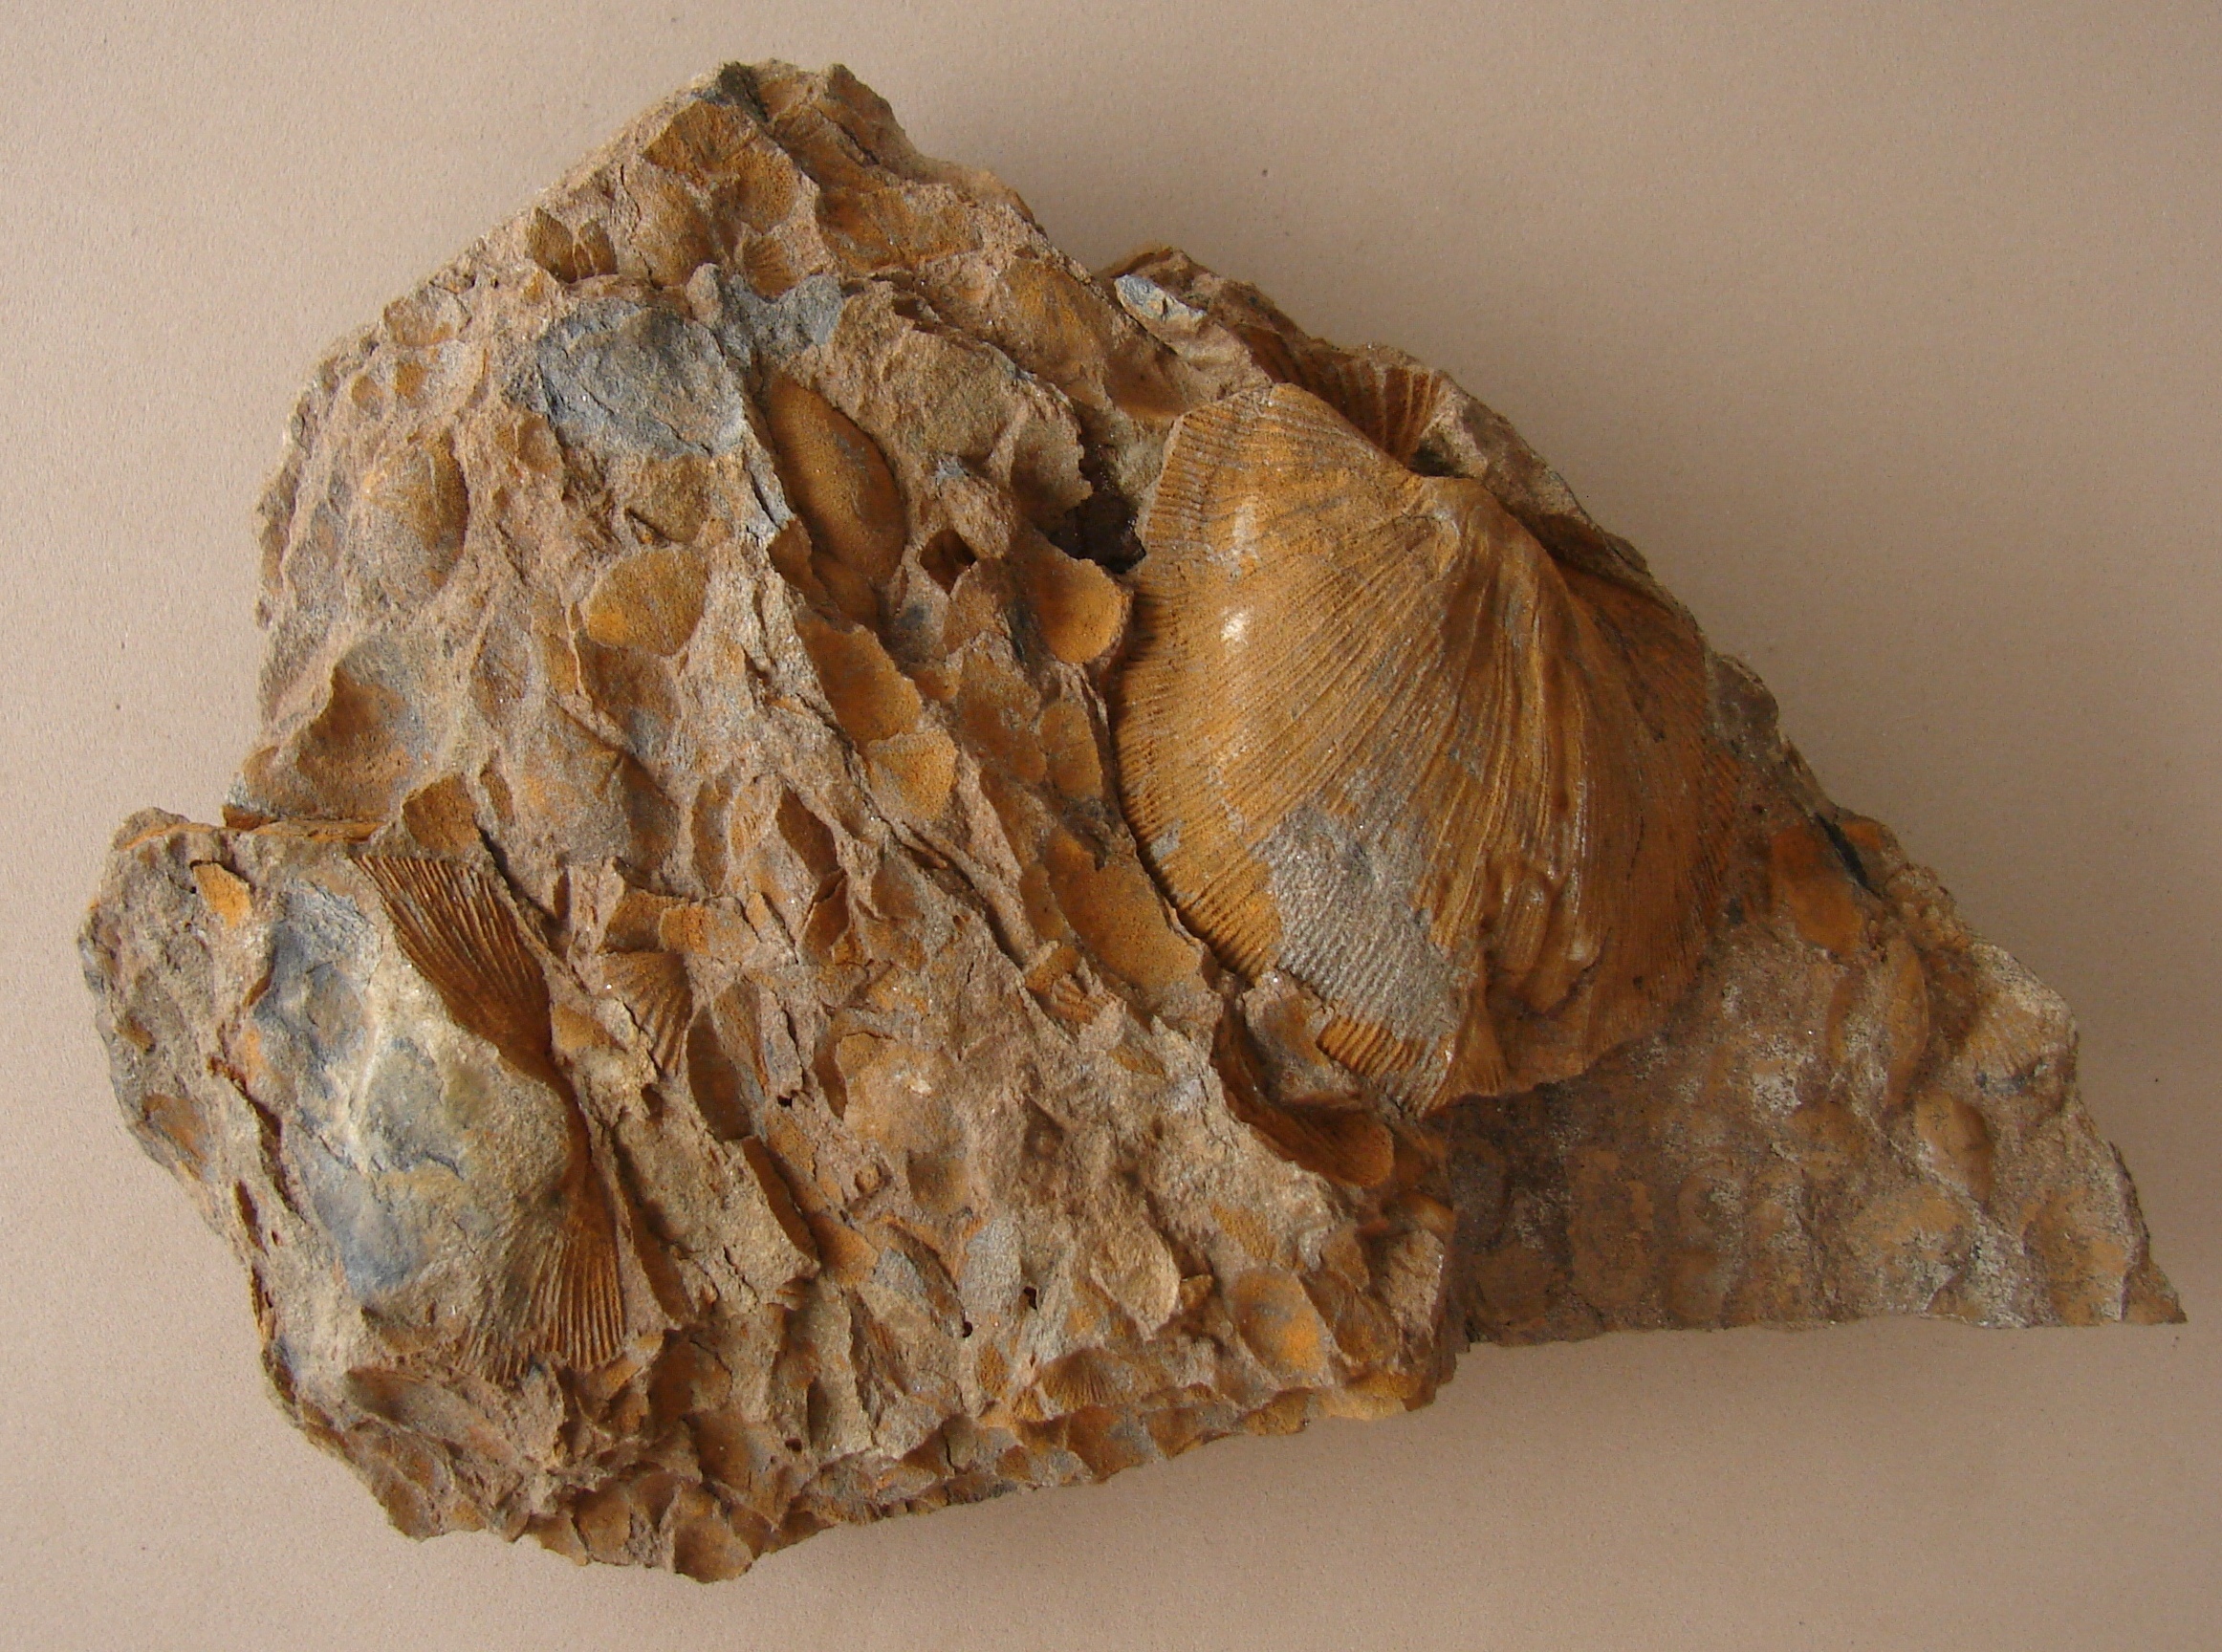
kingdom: Animalia
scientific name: Animalia
